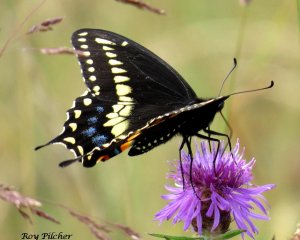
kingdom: Animalia
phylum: Arthropoda
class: Insecta
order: Lepidoptera
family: Papilionidae
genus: Papilio
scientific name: Papilio polyxenes
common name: Black Swallowtail
